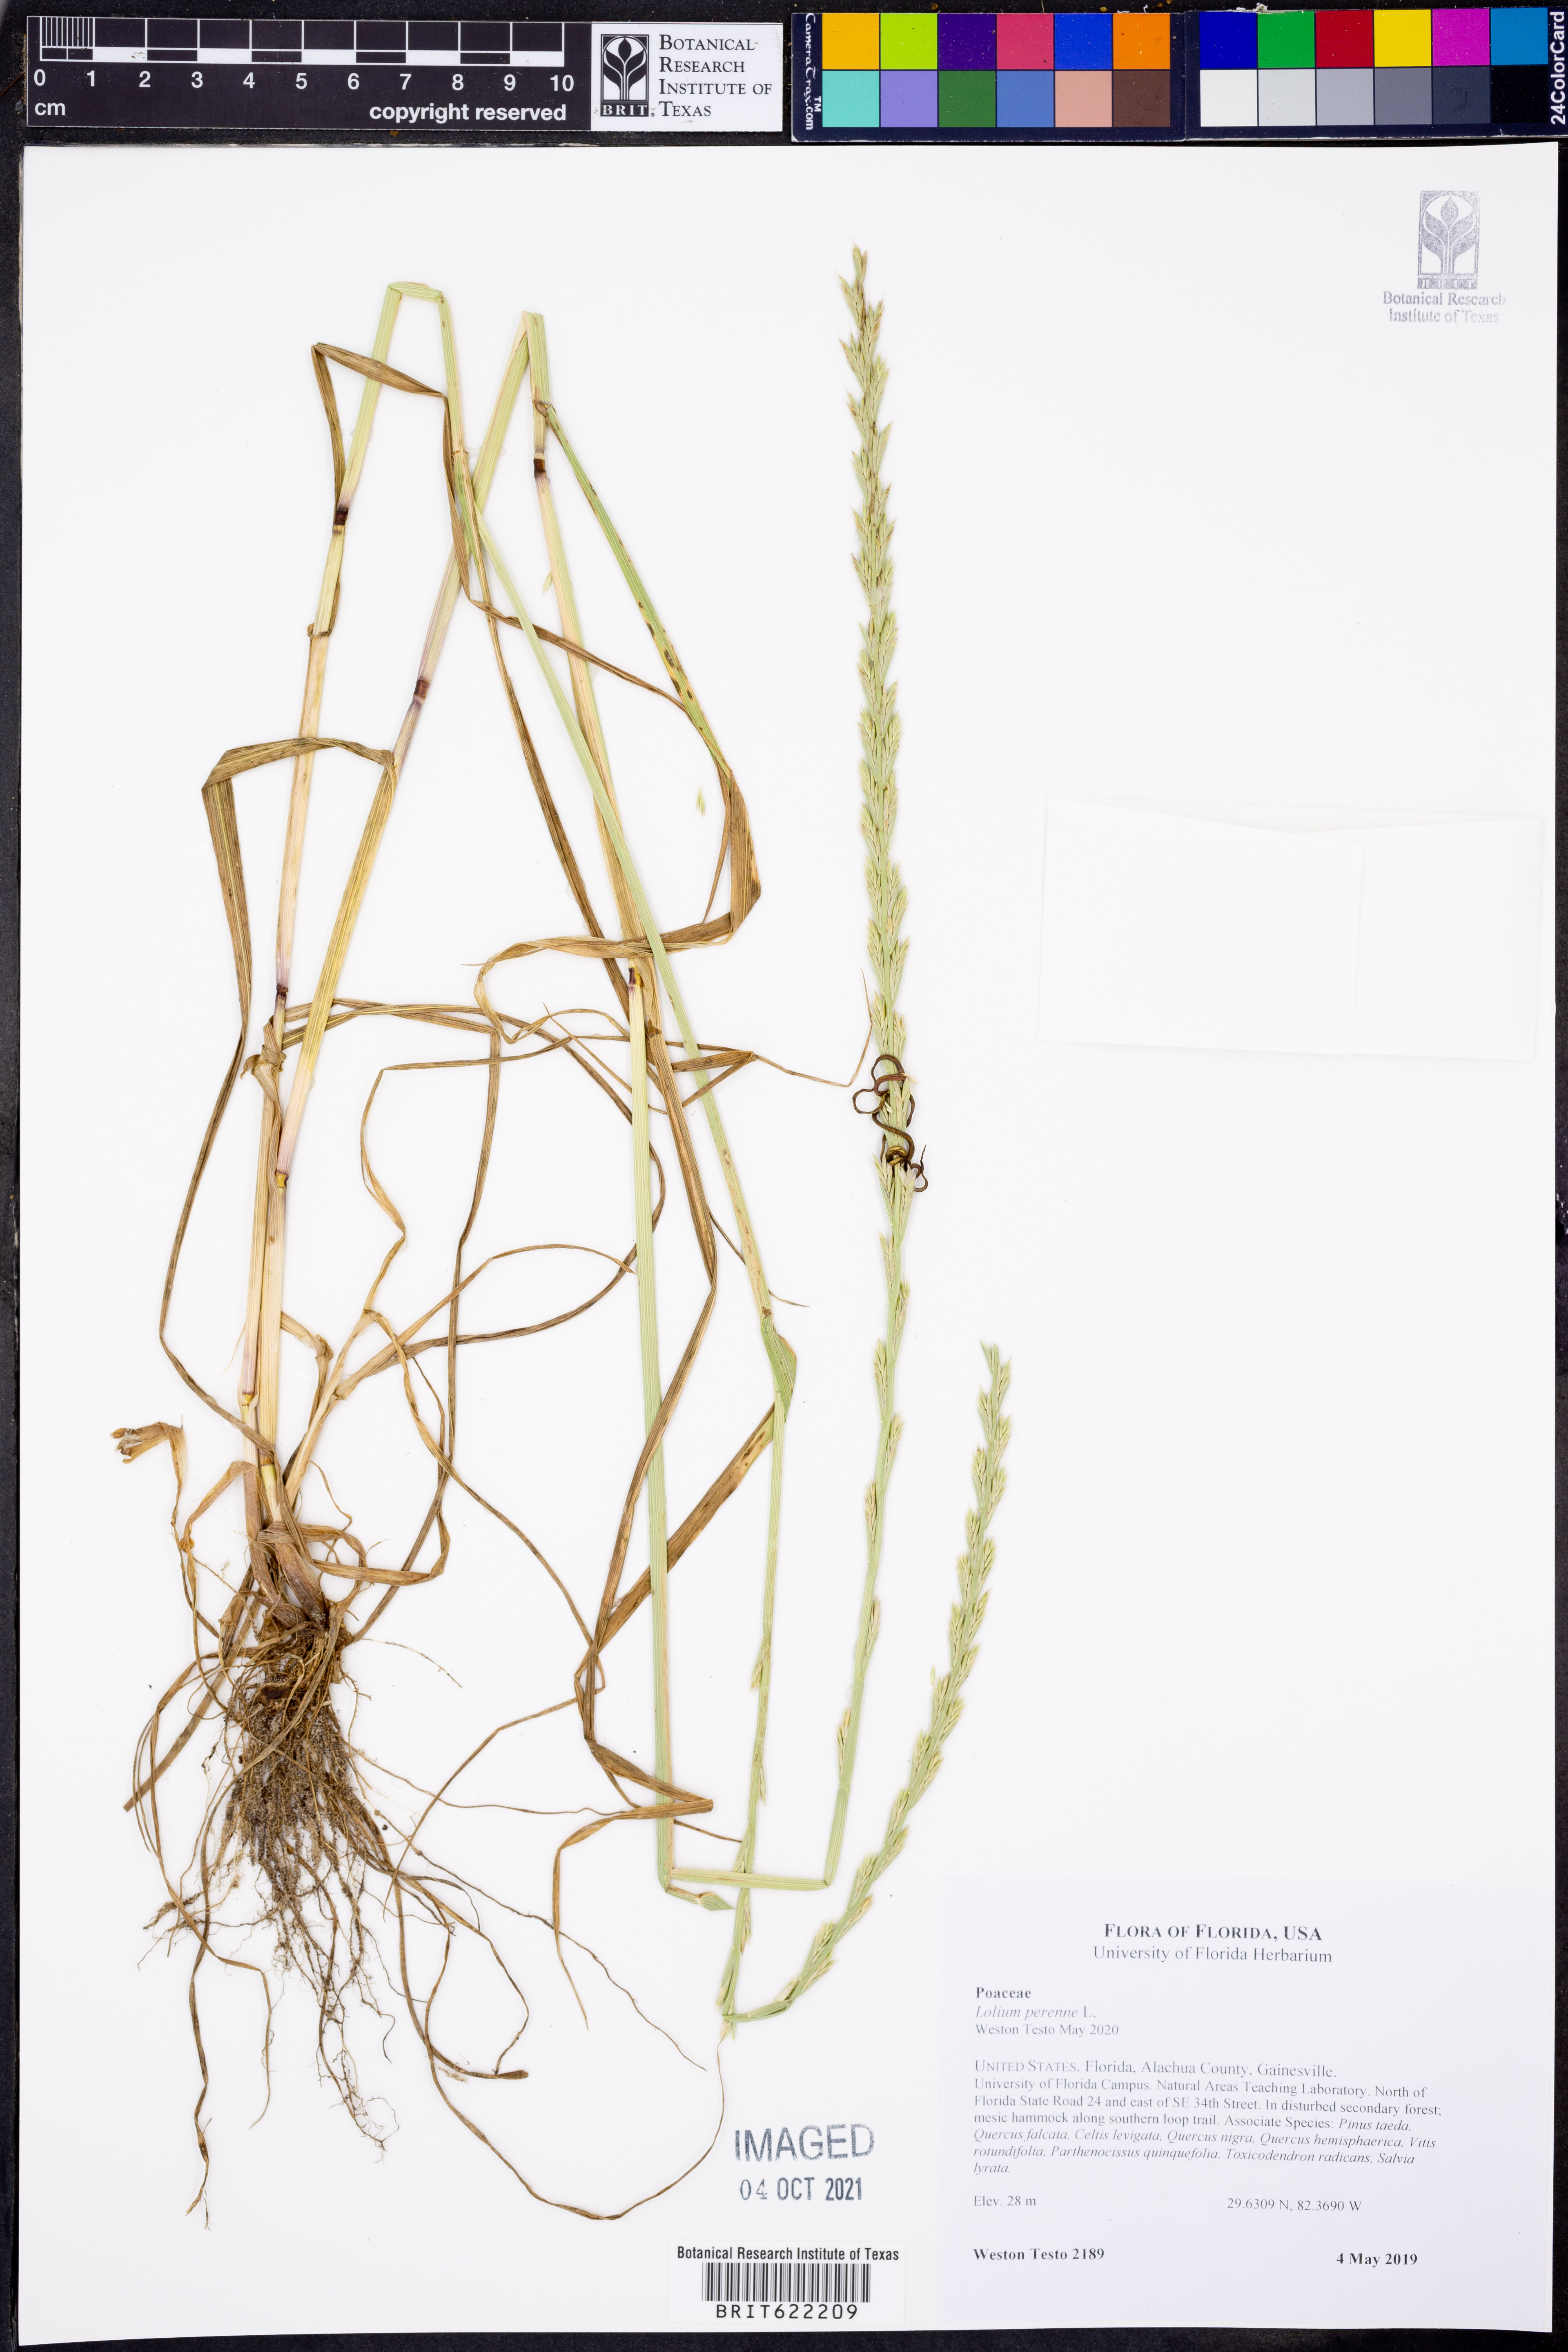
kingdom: Plantae
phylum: Tracheophyta
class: Liliopsida
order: Poales
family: Poaceae
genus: Lolium
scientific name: Lolium perenne
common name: Perennial ryegrass
